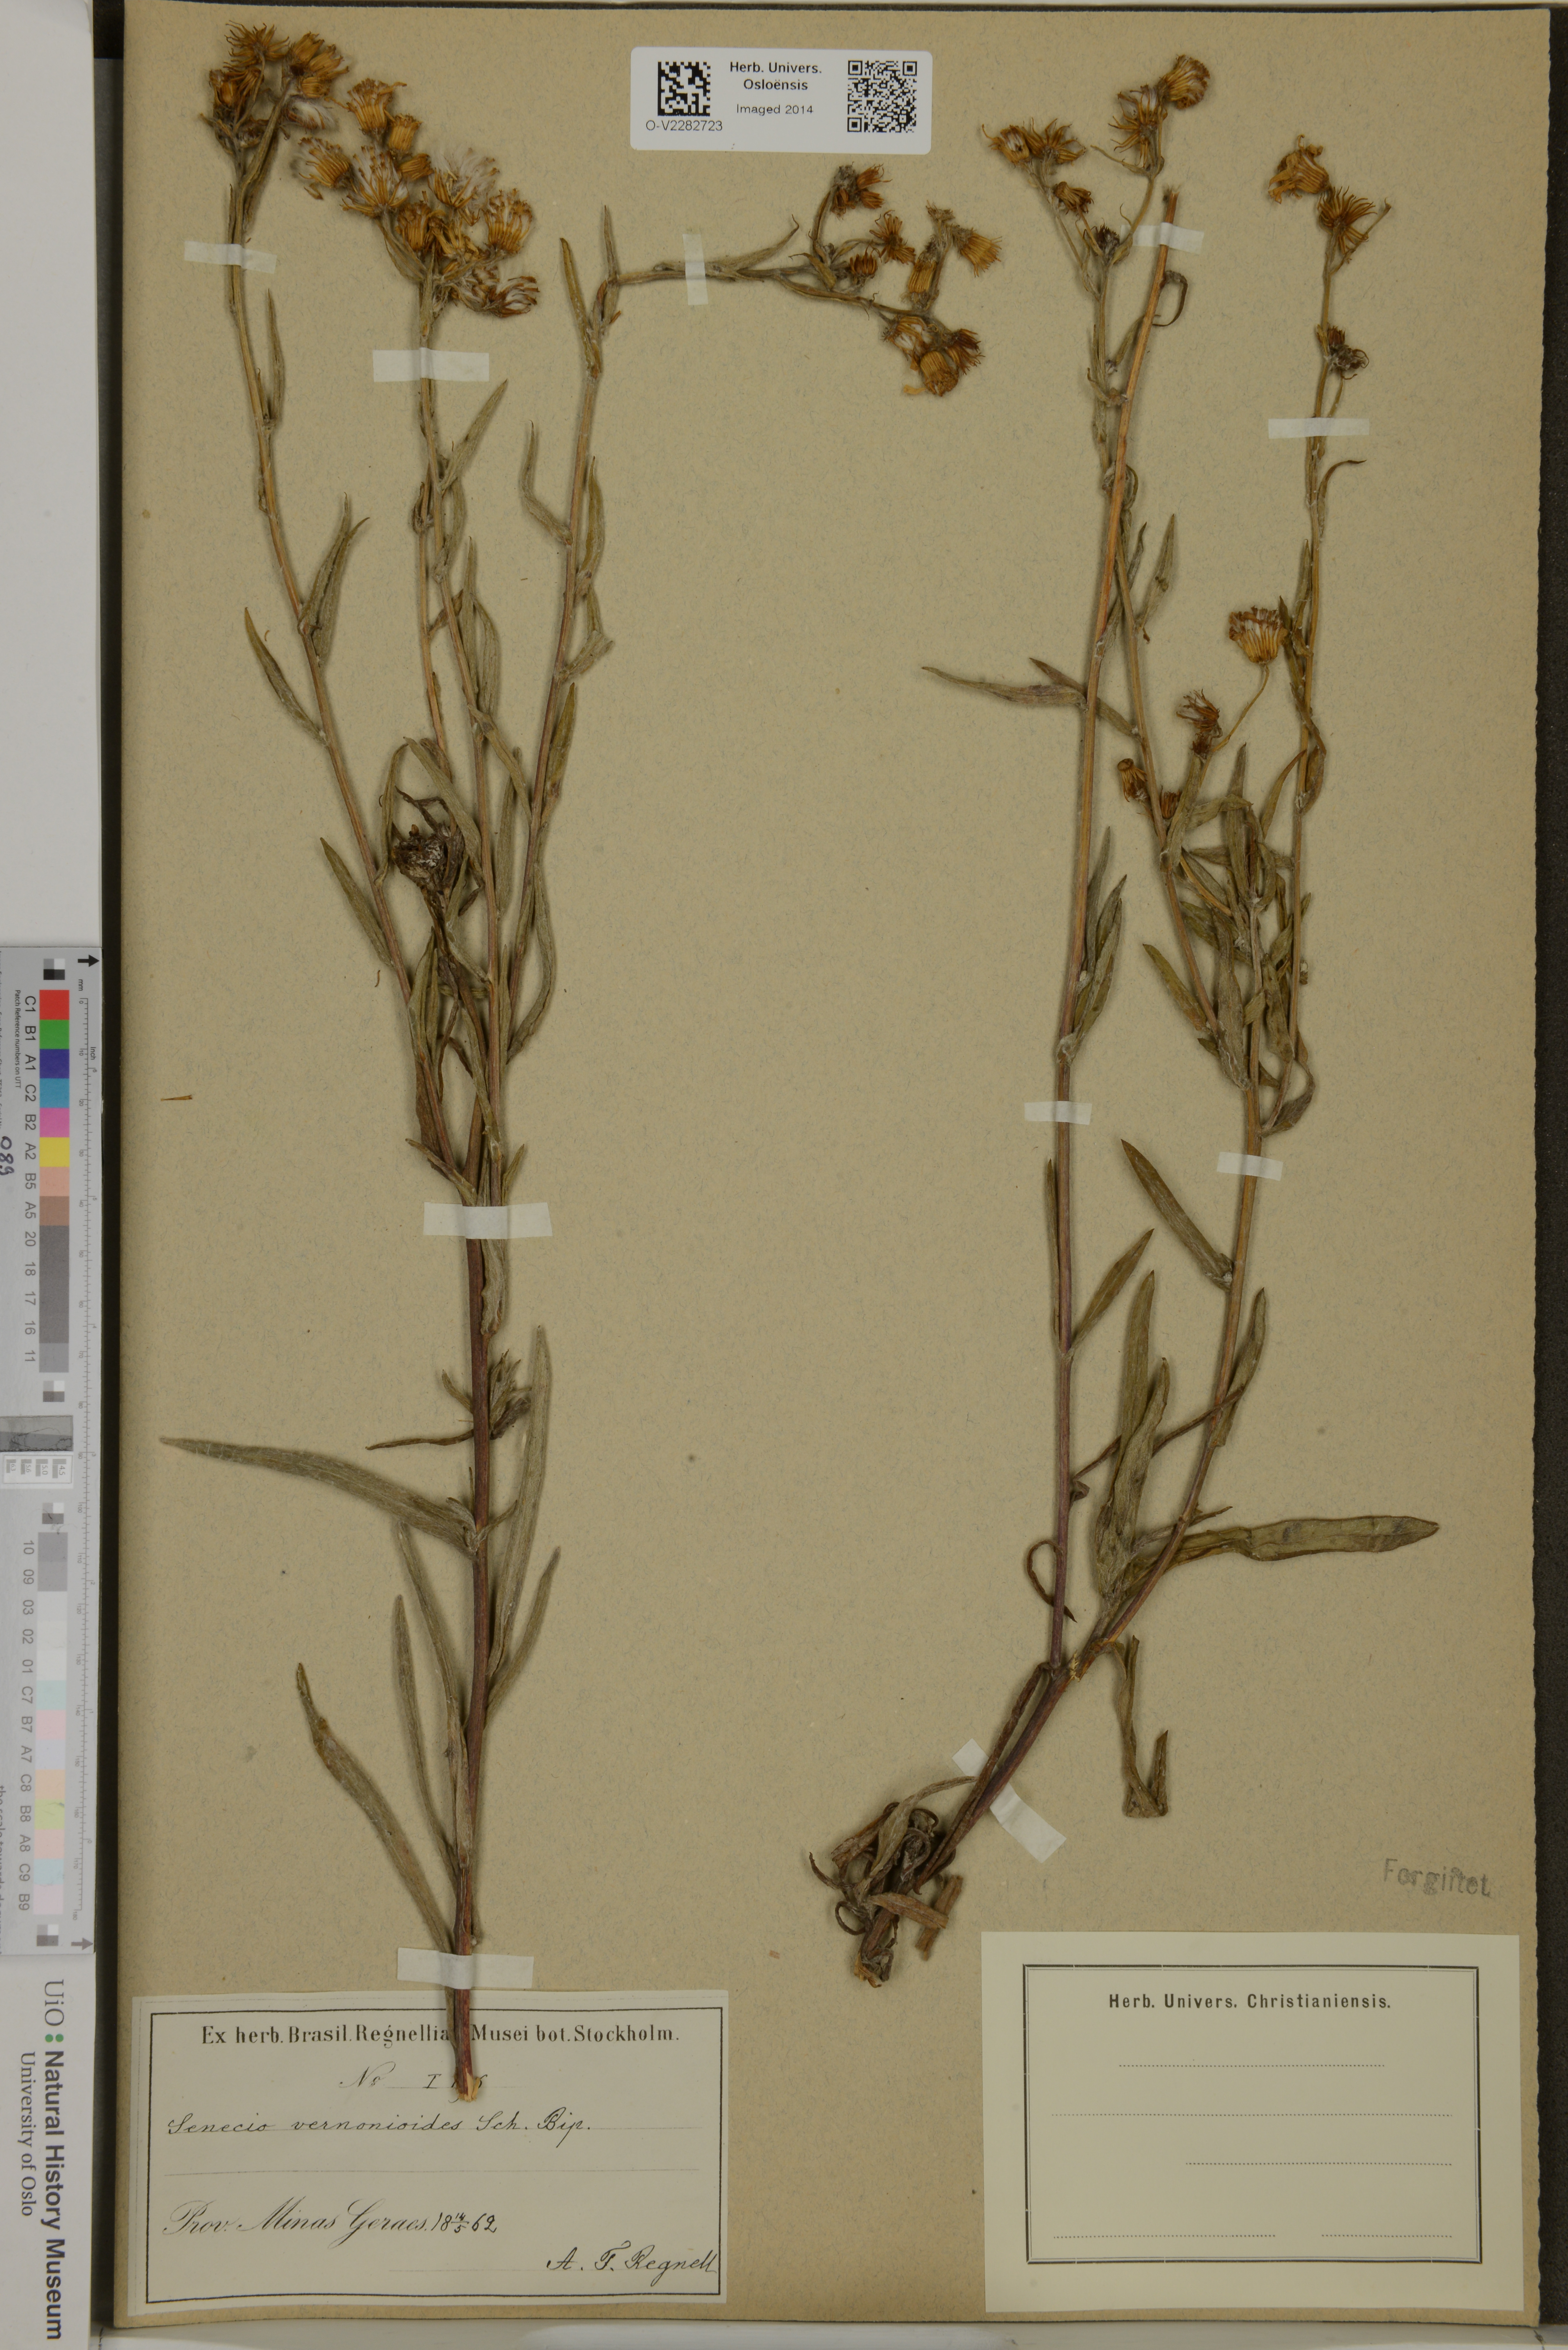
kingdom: Plantae
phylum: Tracheophyta
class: Magnoliopsida
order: Asterales
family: Asteraceae
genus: Senecio
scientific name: Senecio
